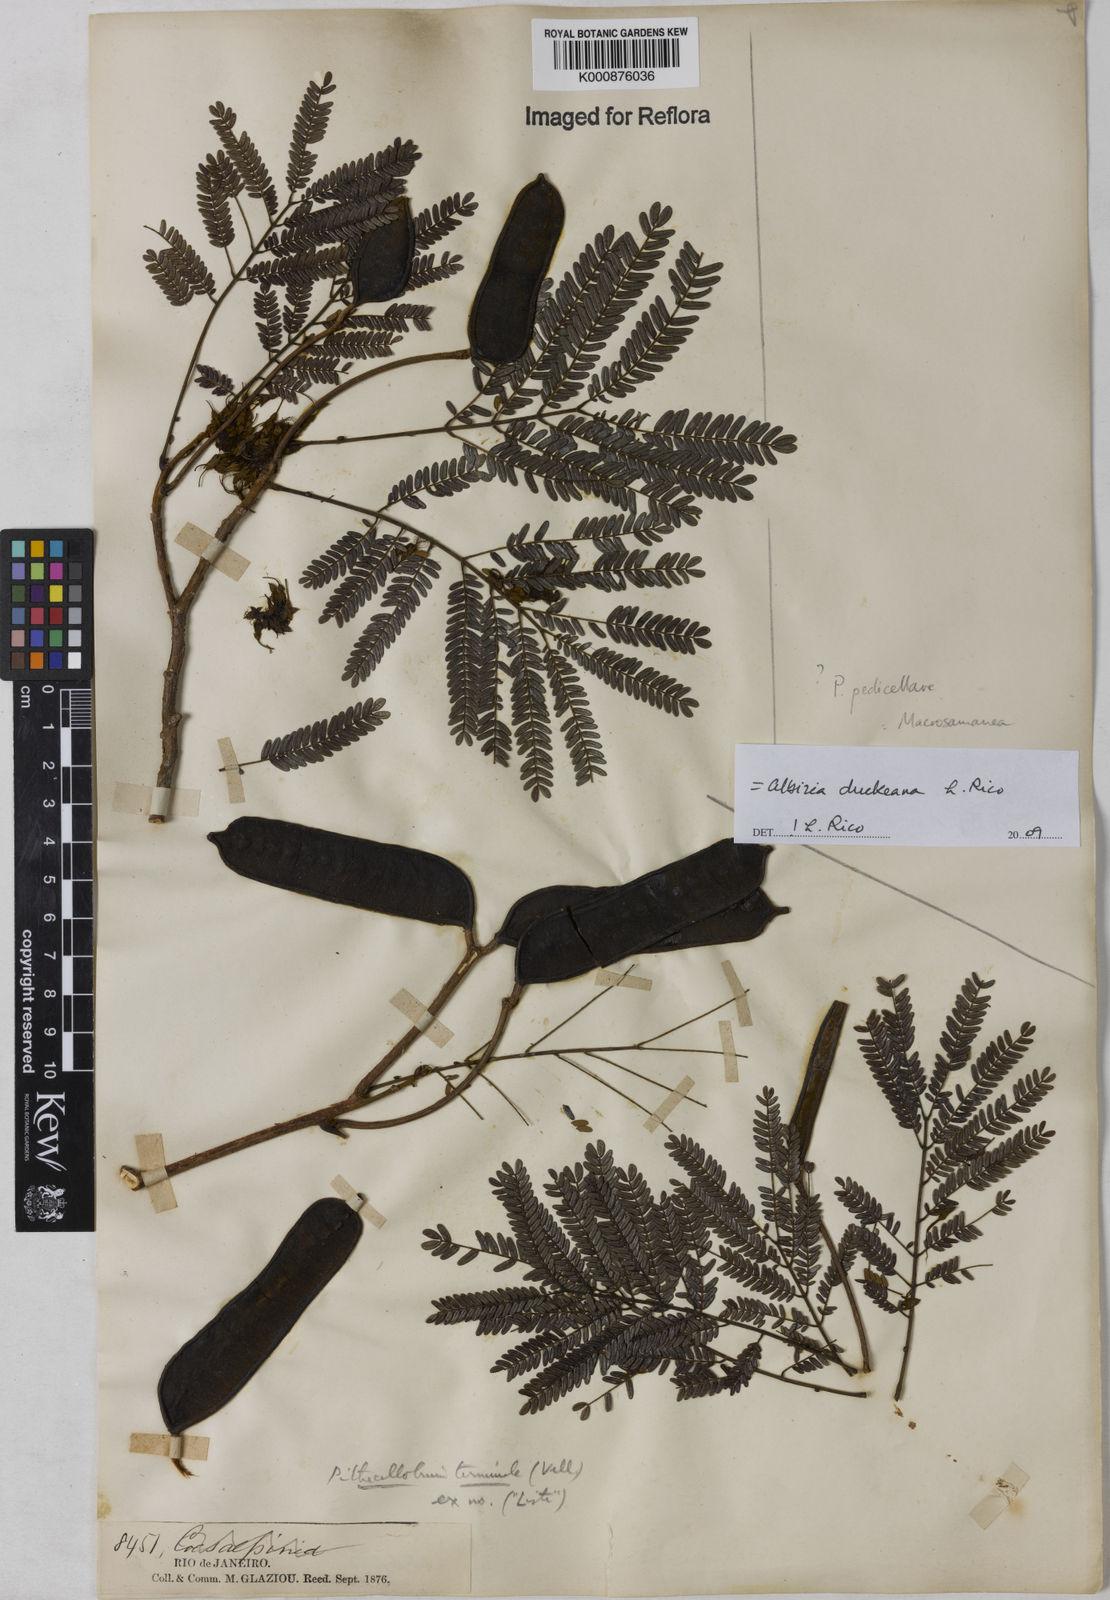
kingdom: Plantae
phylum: Tracheophyta
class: Magnoliopsida
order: Fabales
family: Fabaceae
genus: Balizia
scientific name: Balizia elegans
